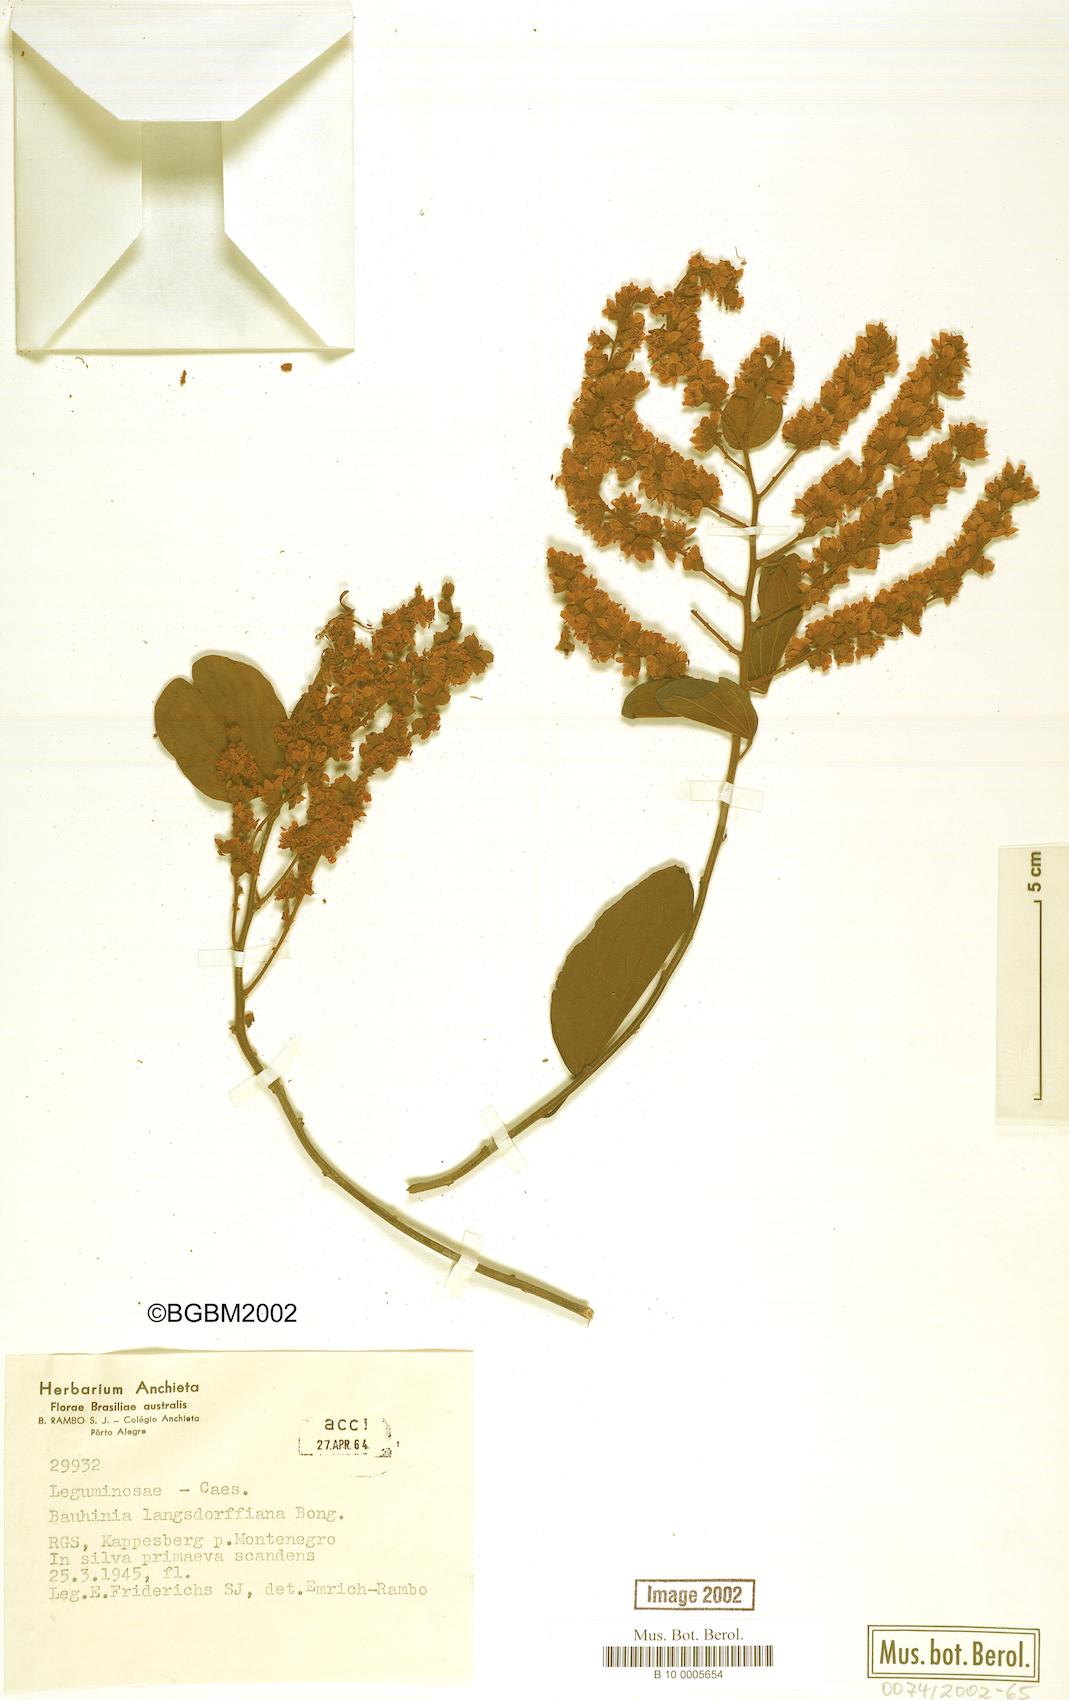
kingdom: Plantae
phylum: Tracheophyta
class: Magnoliopsida
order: Fabales
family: Fabaceae
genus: Schnella
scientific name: Schnella microstachya
